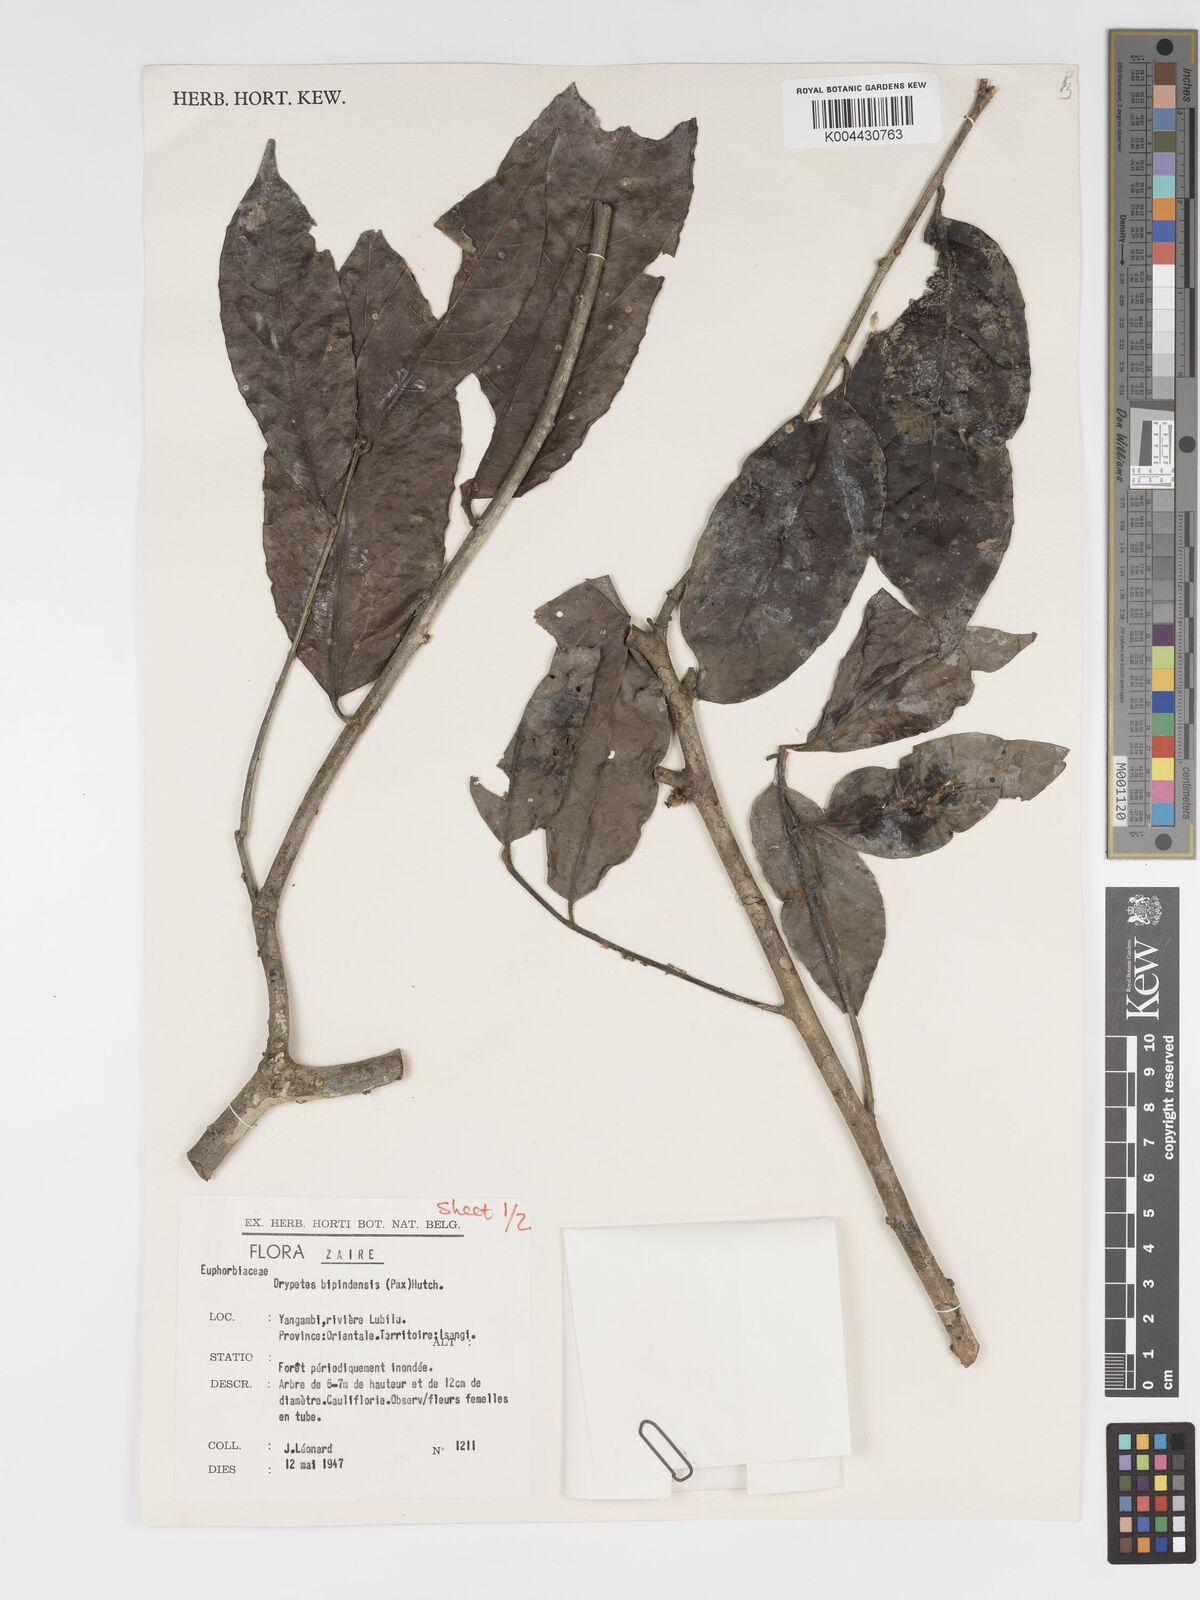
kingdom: Plantae
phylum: Tracheophyta
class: Magnoliopsida
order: Malpighiales
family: Putranjivaceae
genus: Drypetes
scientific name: Drypetes bipindensis
